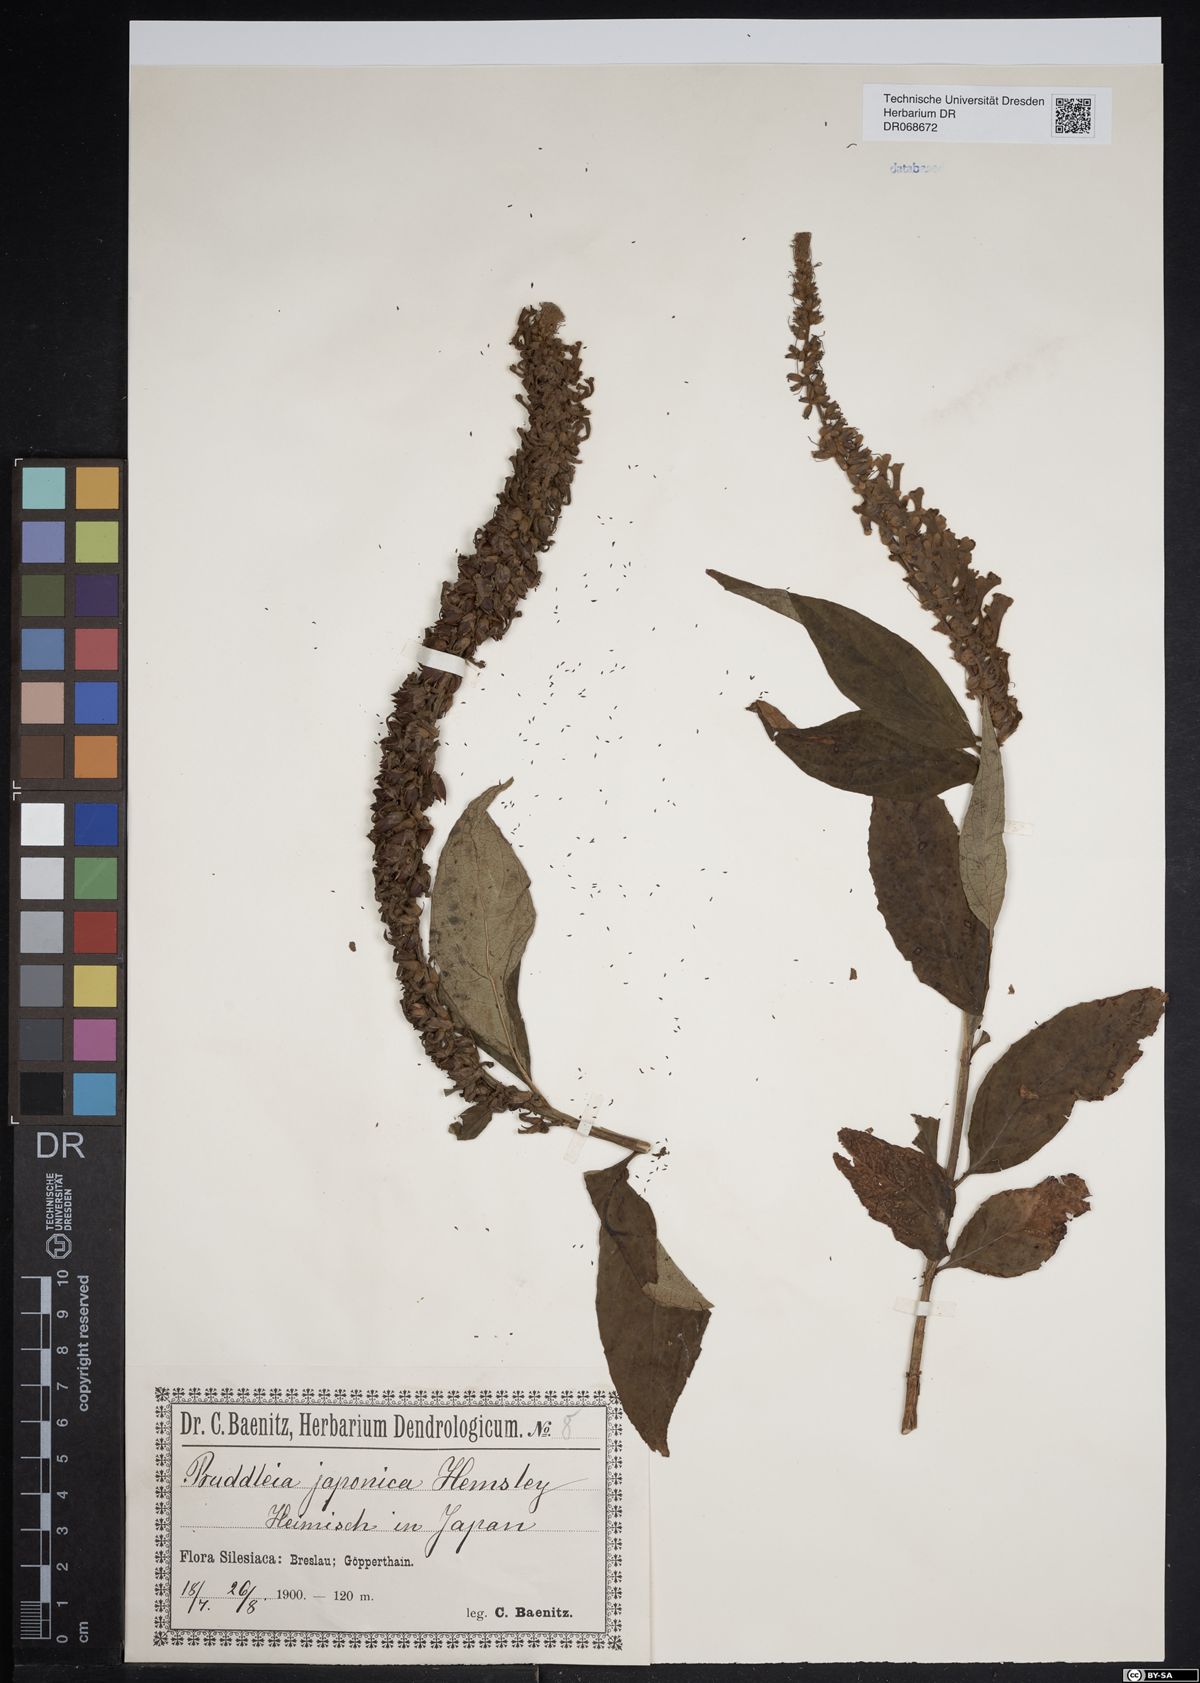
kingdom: Plantae
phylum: Tracheophyta
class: Magnoliopsida
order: Lamiales
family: Scrophulariaceae
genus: Buddleja
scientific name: Buddleja japonica
